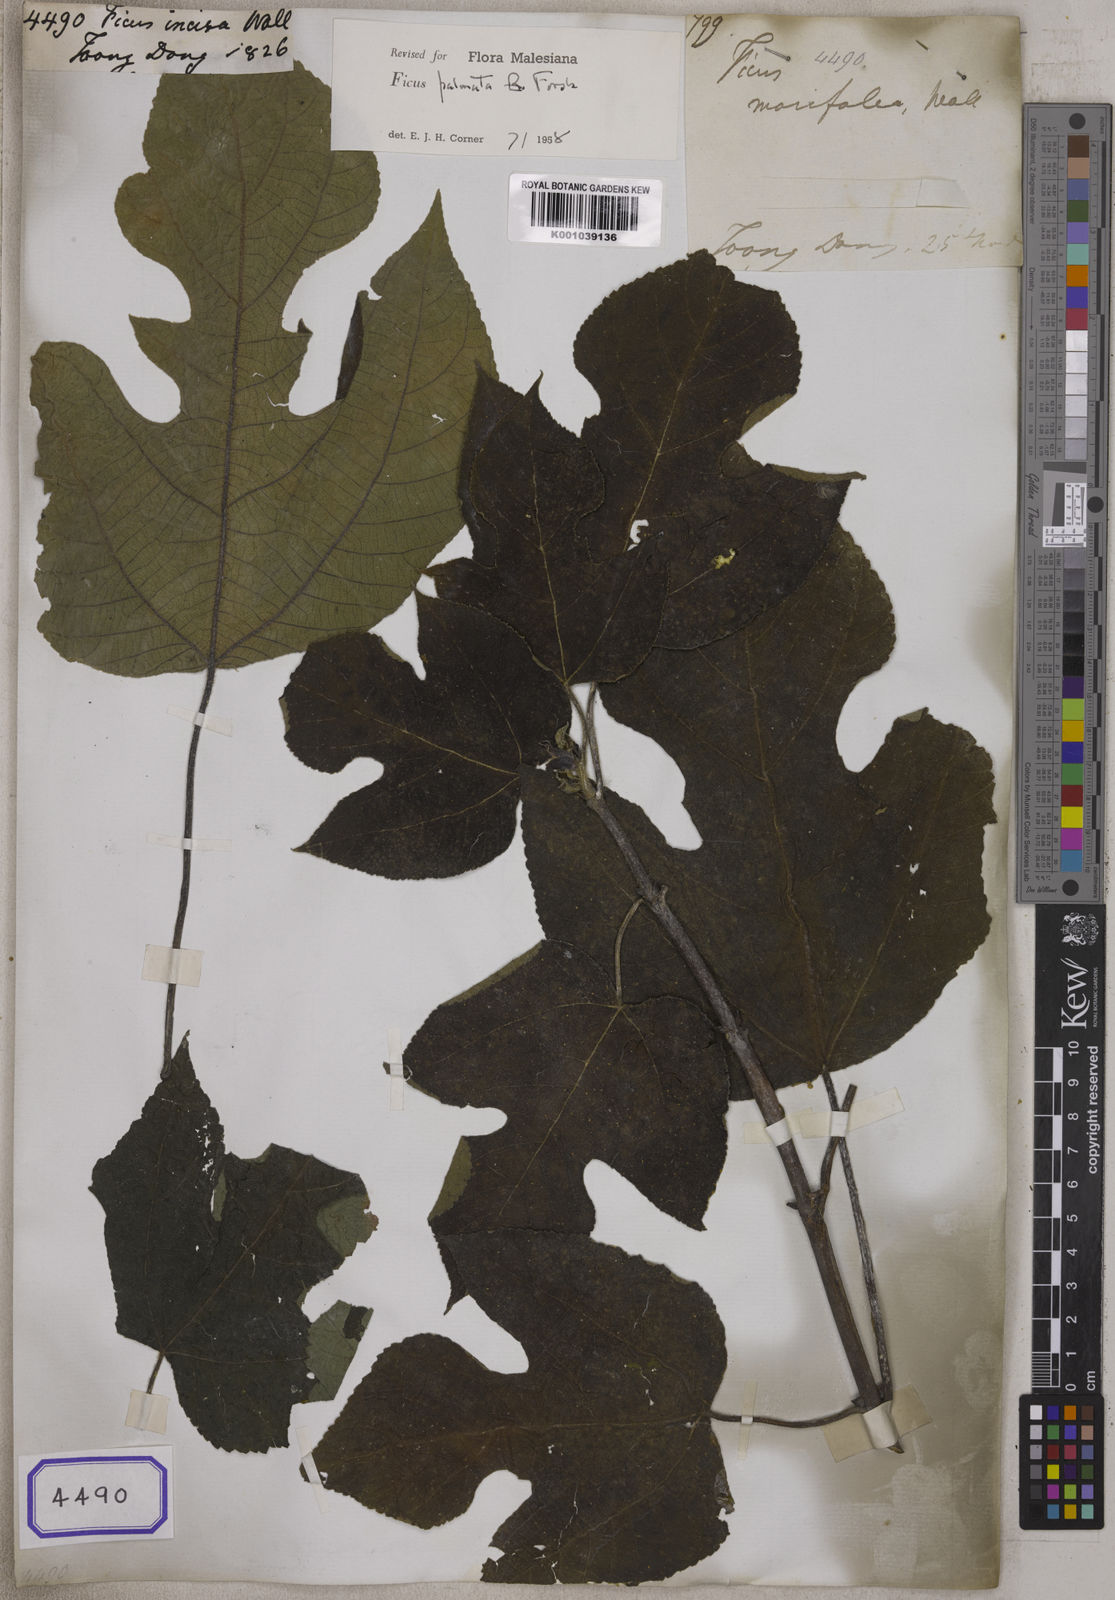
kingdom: Plantae
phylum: Tracheophyta
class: Magnoliopsida
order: Rosales
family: Moraceae
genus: Ficus
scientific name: Ficus
